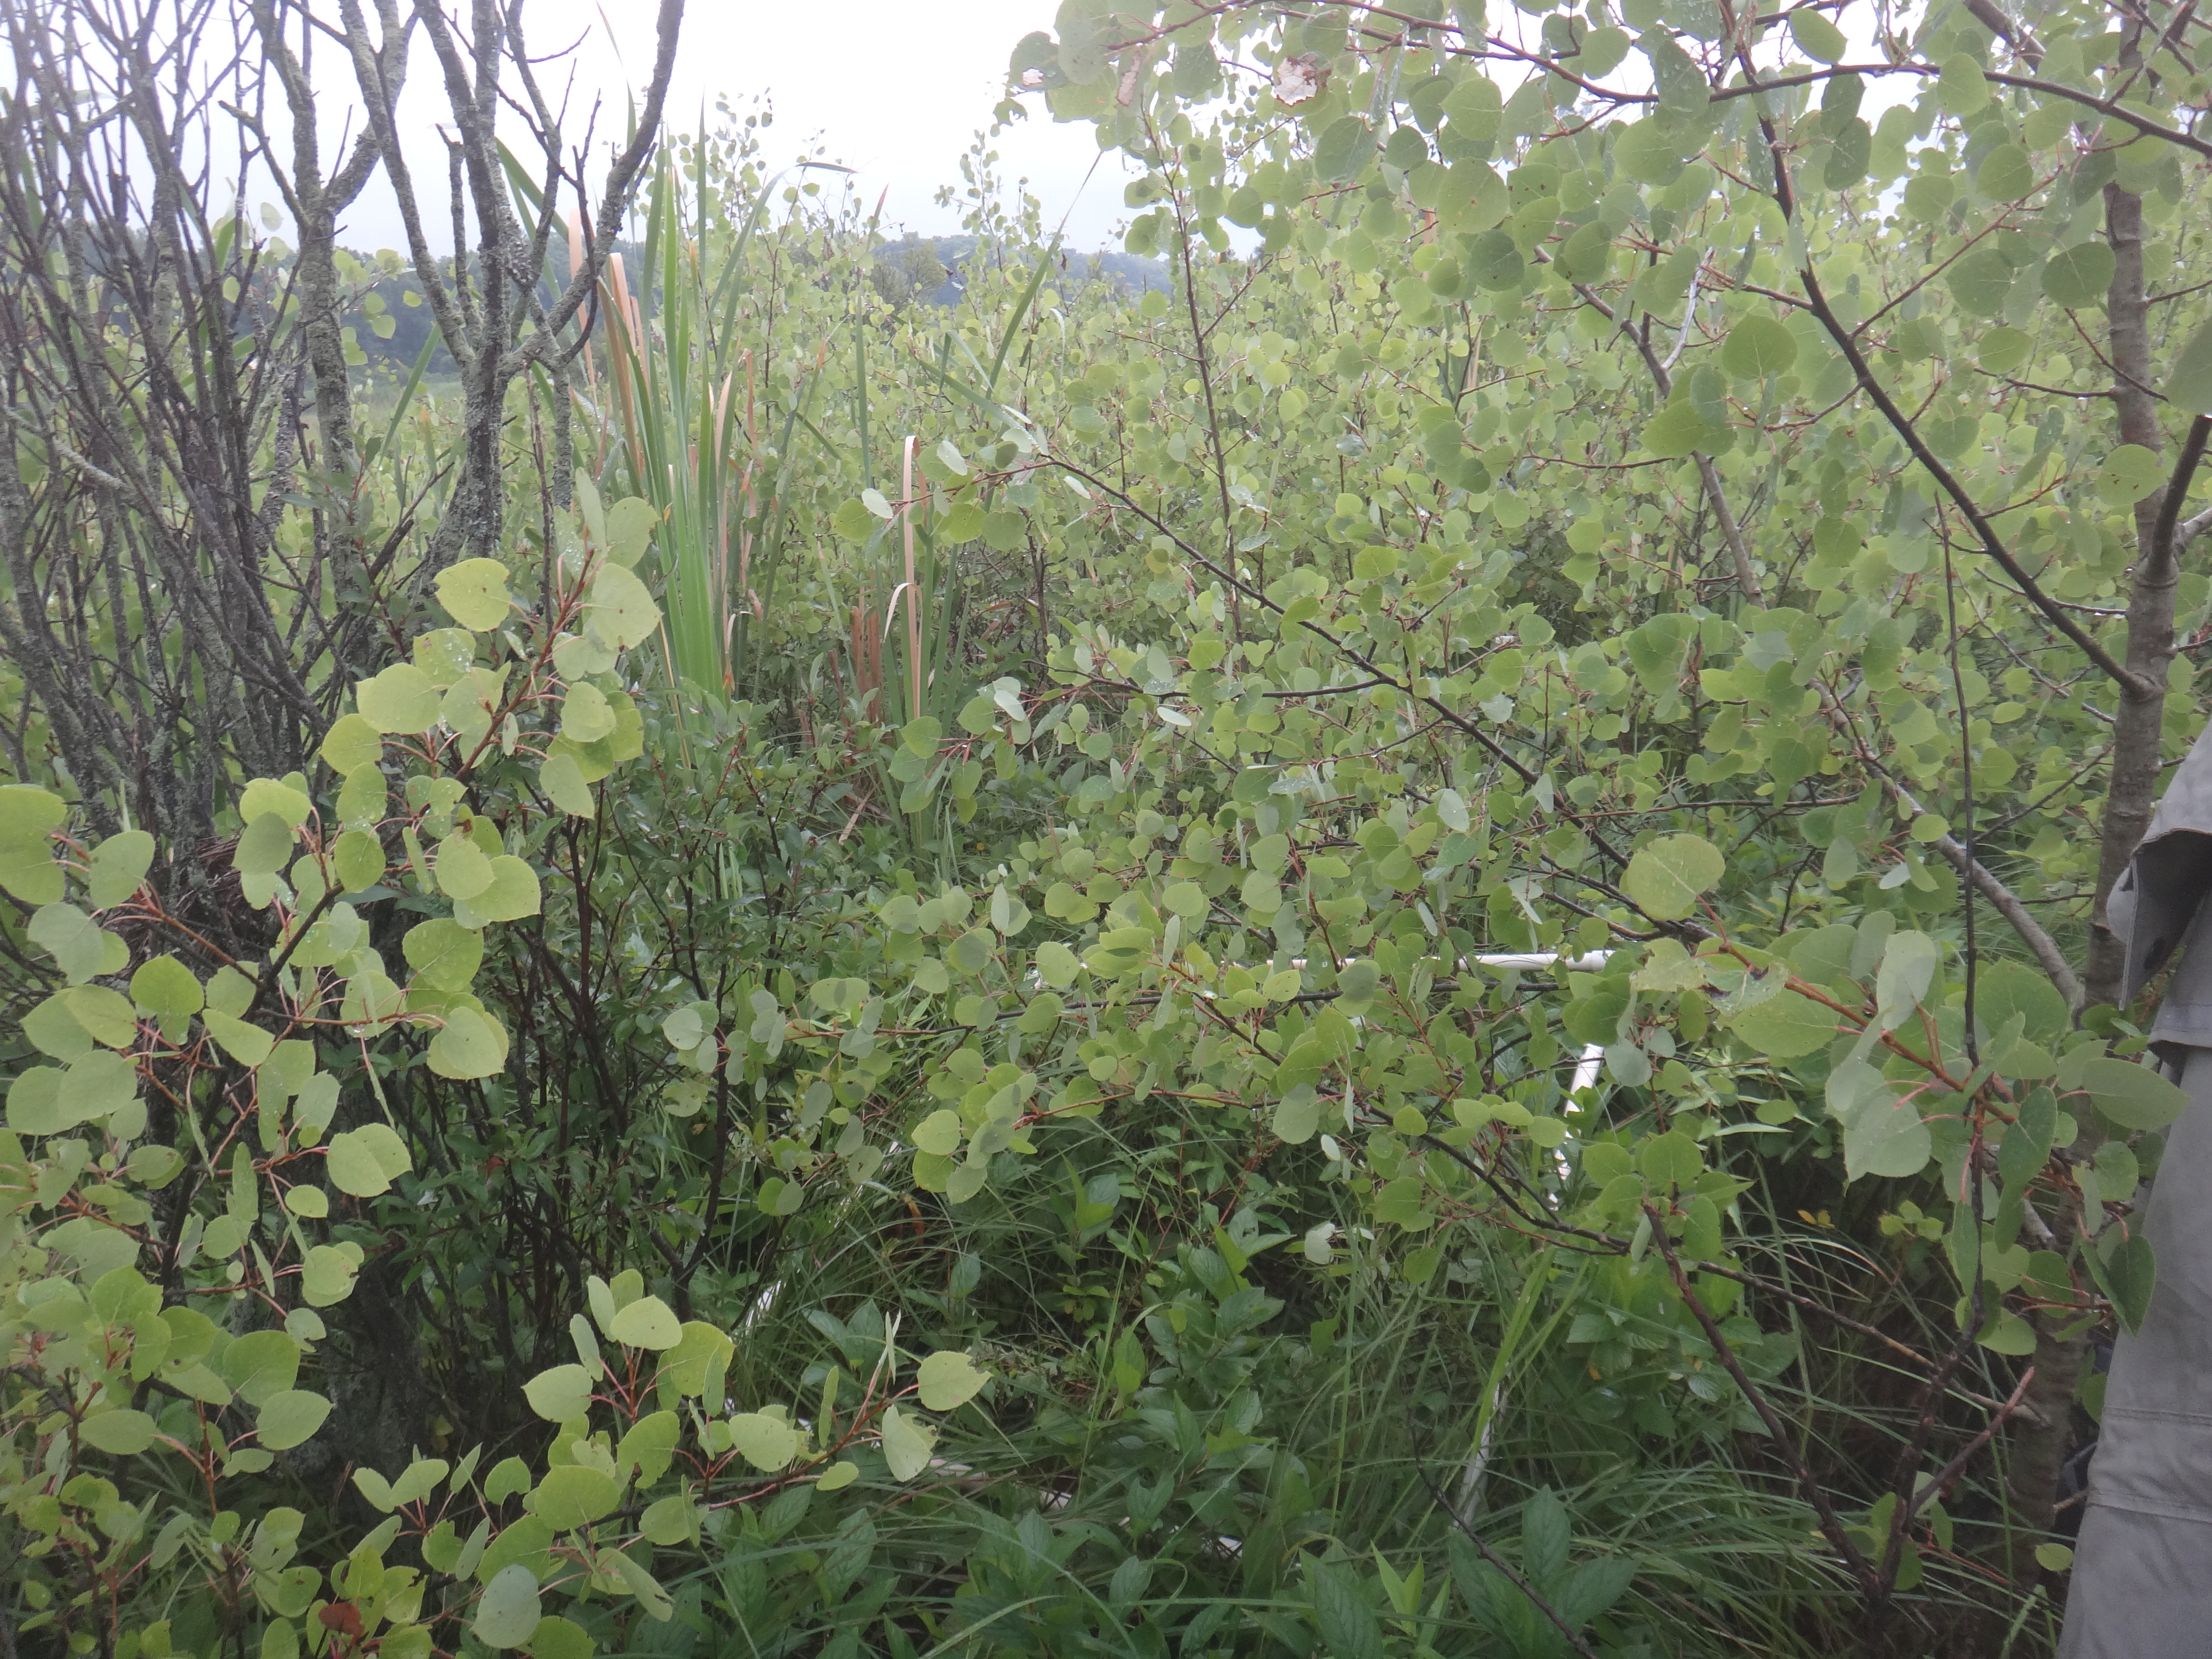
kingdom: Plantae
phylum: Tracheophyta
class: Polypodiopsida
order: Polypodiales
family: Thelypteridaceae
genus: Thelypteris
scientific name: Thelypteris palustris
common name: Marsh fern
